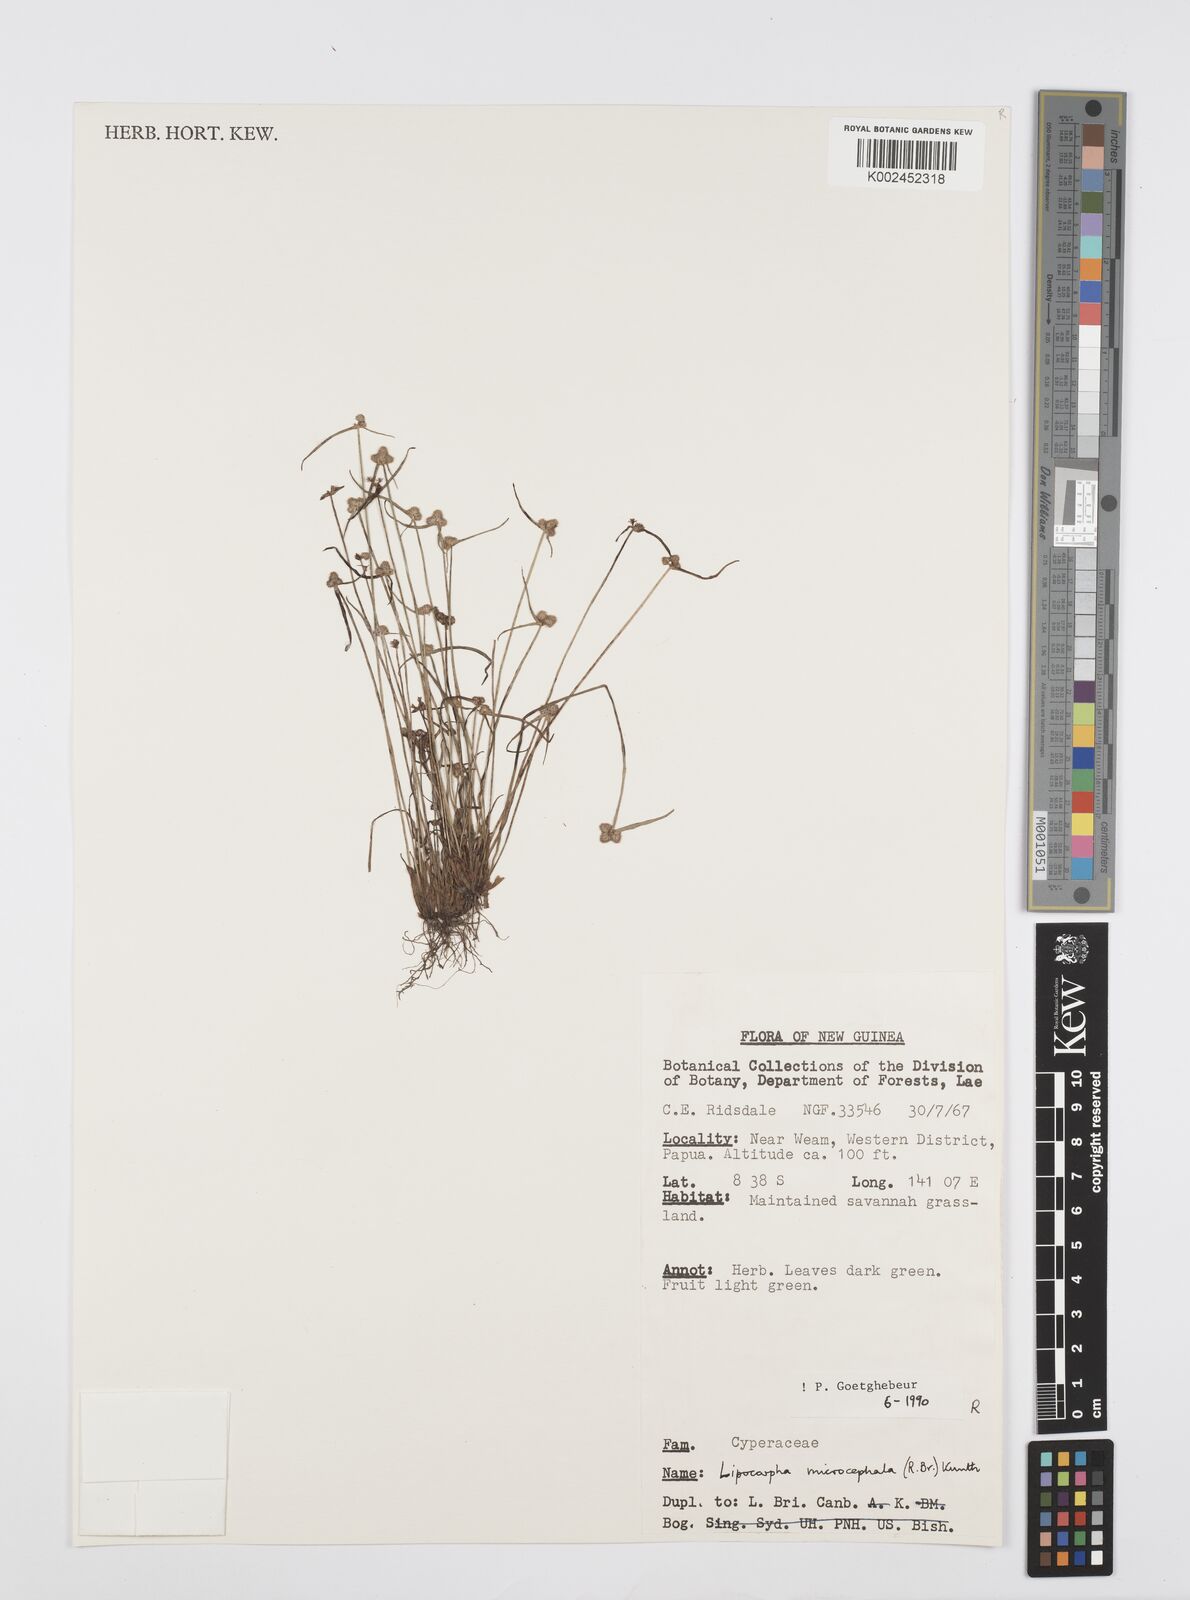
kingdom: Plantae
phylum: Tracheophyta
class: Liliopsida
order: Poales
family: Cyperaceae
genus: Cyperus
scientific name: Cyperus microcephalus
